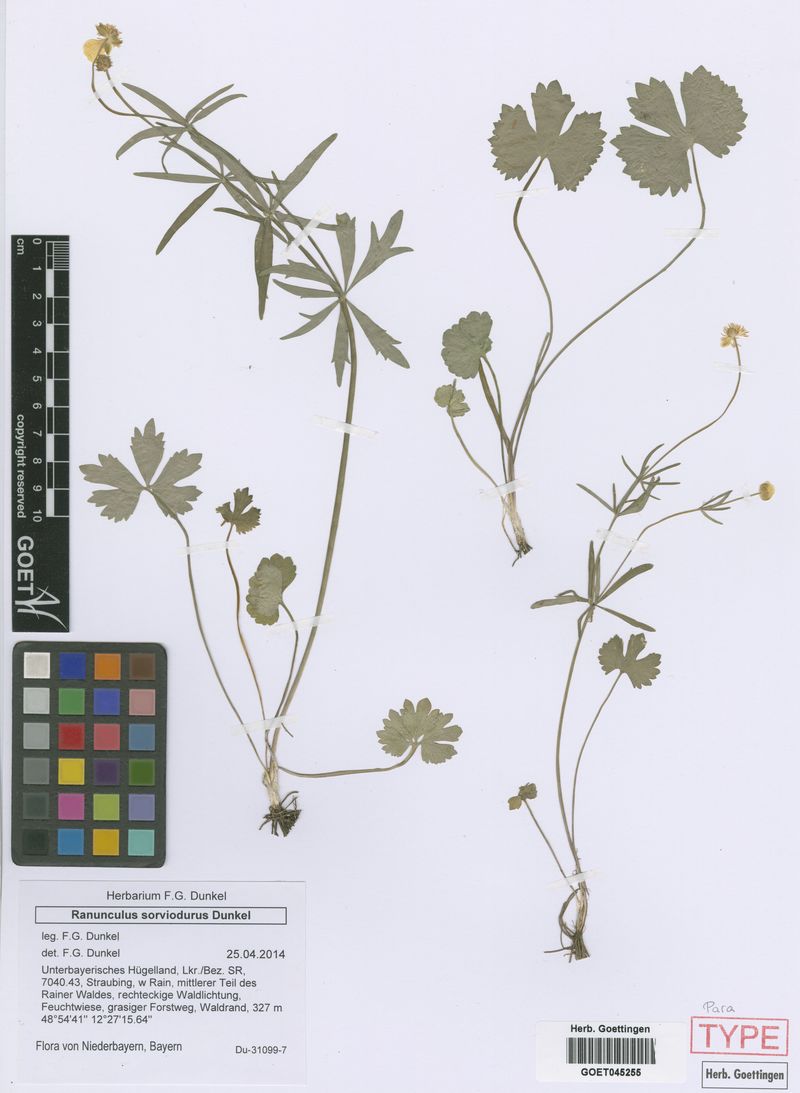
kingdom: Plantae
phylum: Tracheophyta
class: Magnoliopsida
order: Ranunculales
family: Ranunculaceae
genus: Ranunculus
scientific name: Ranunculus sorviodurus
